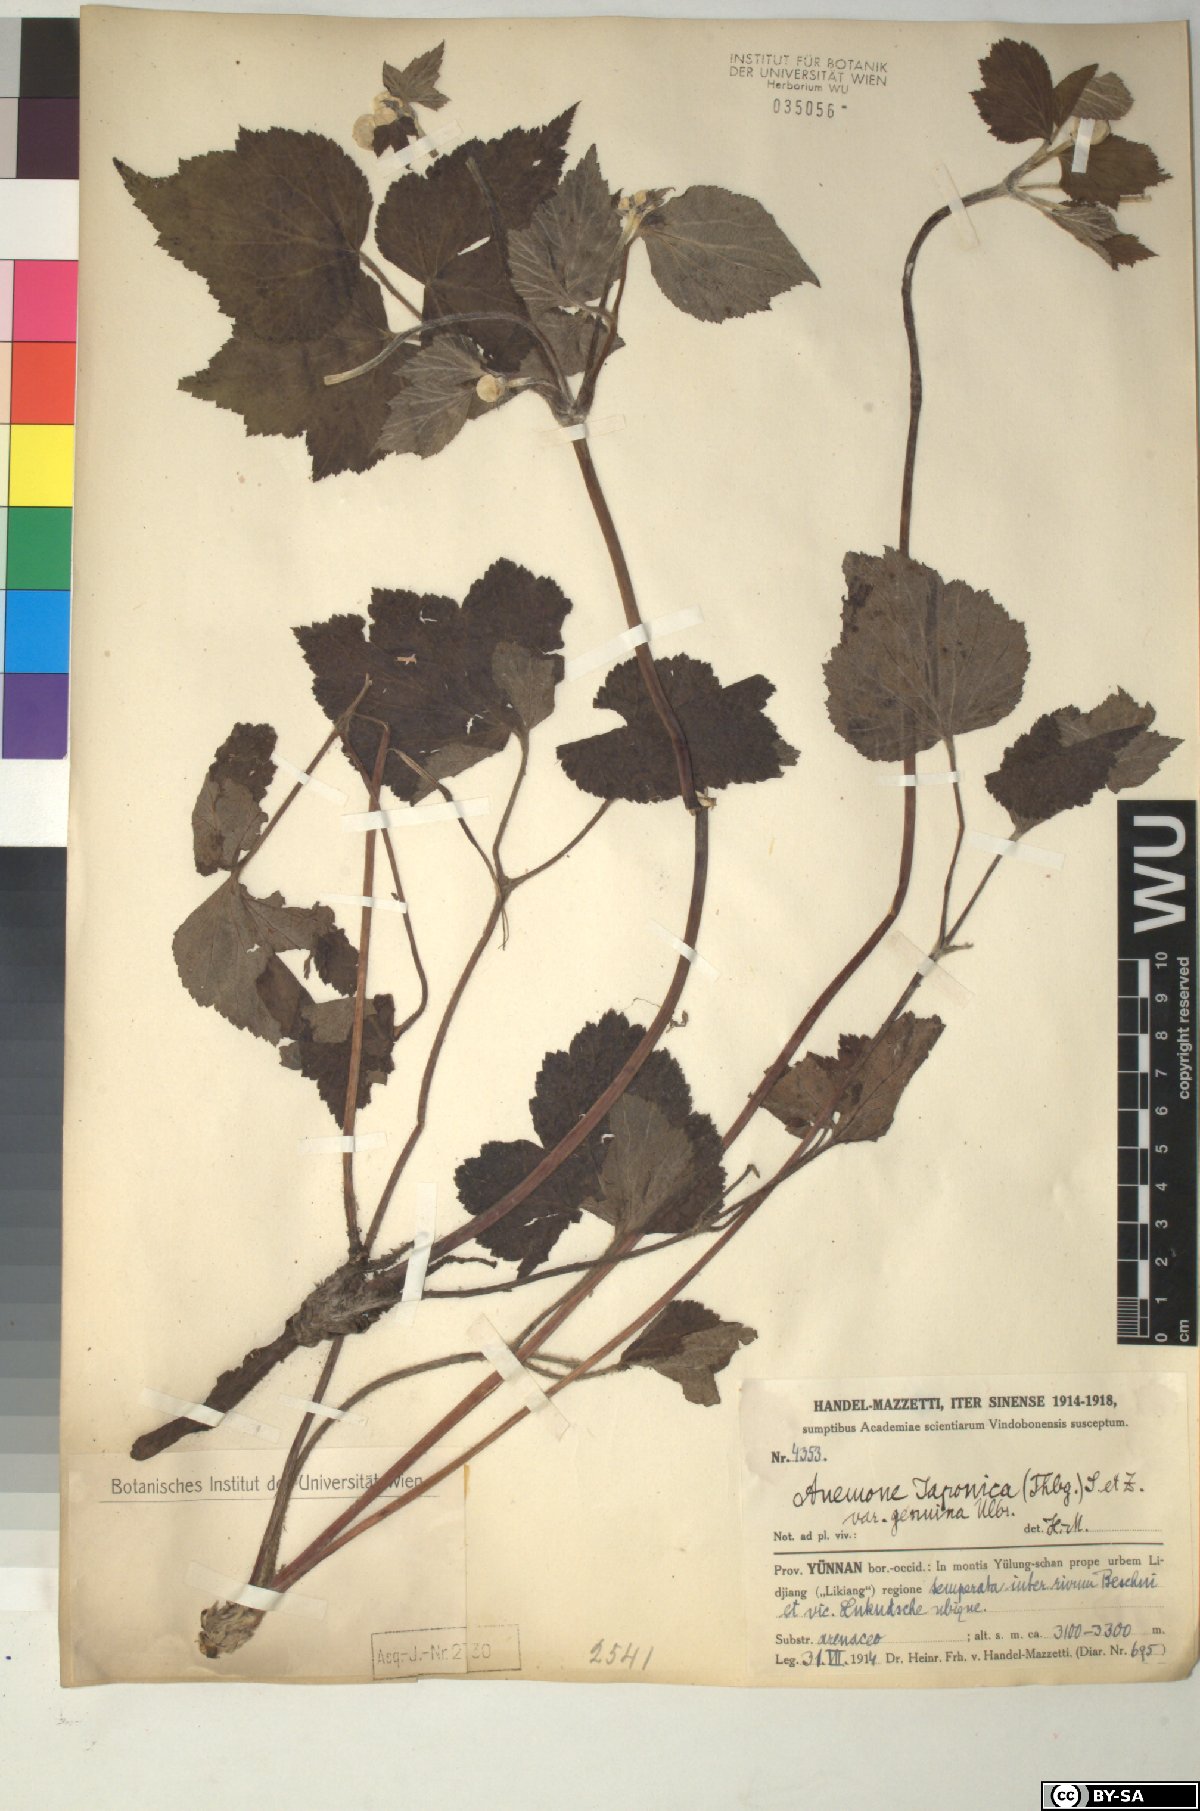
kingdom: Plantae
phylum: Tracheophyta
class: Magnoliopsida
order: Ranunculales
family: Ranunculaceae
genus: Eriocapitella
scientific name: Eriocapitella japonica
